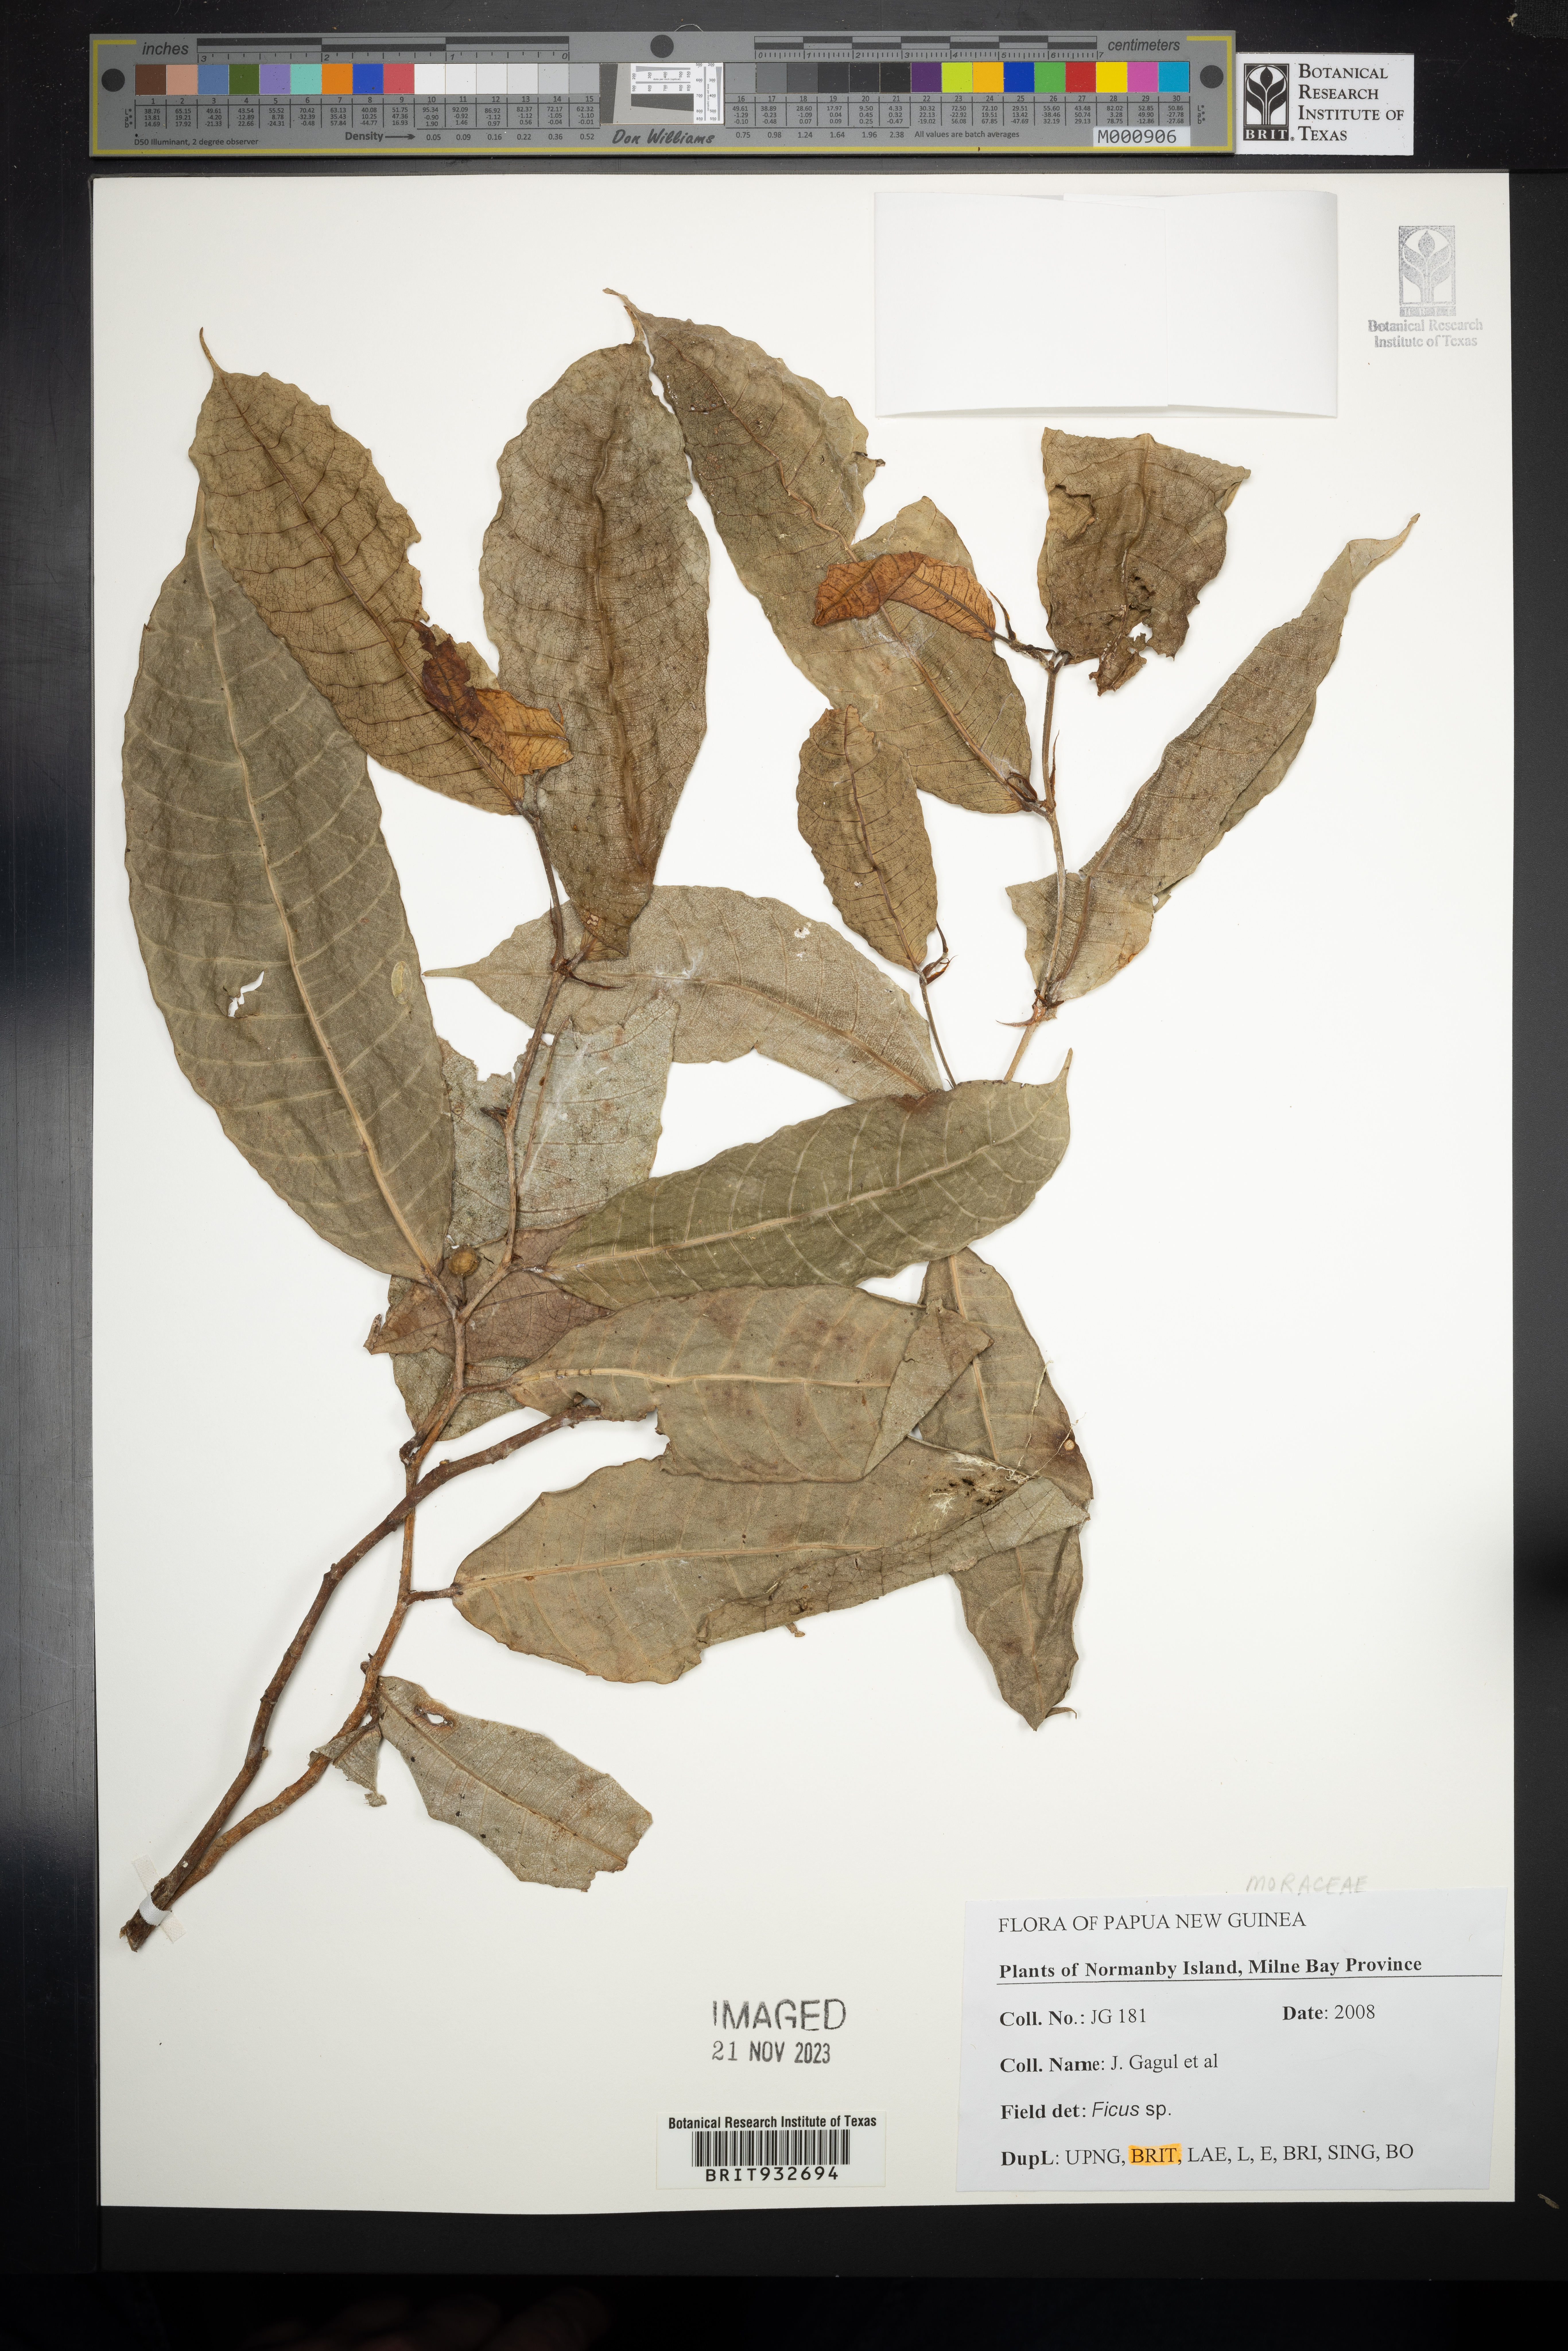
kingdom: Plantae
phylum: Tracheophyta
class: Magnoliopsida
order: Rosales
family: Moraceae
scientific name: Moraceae
